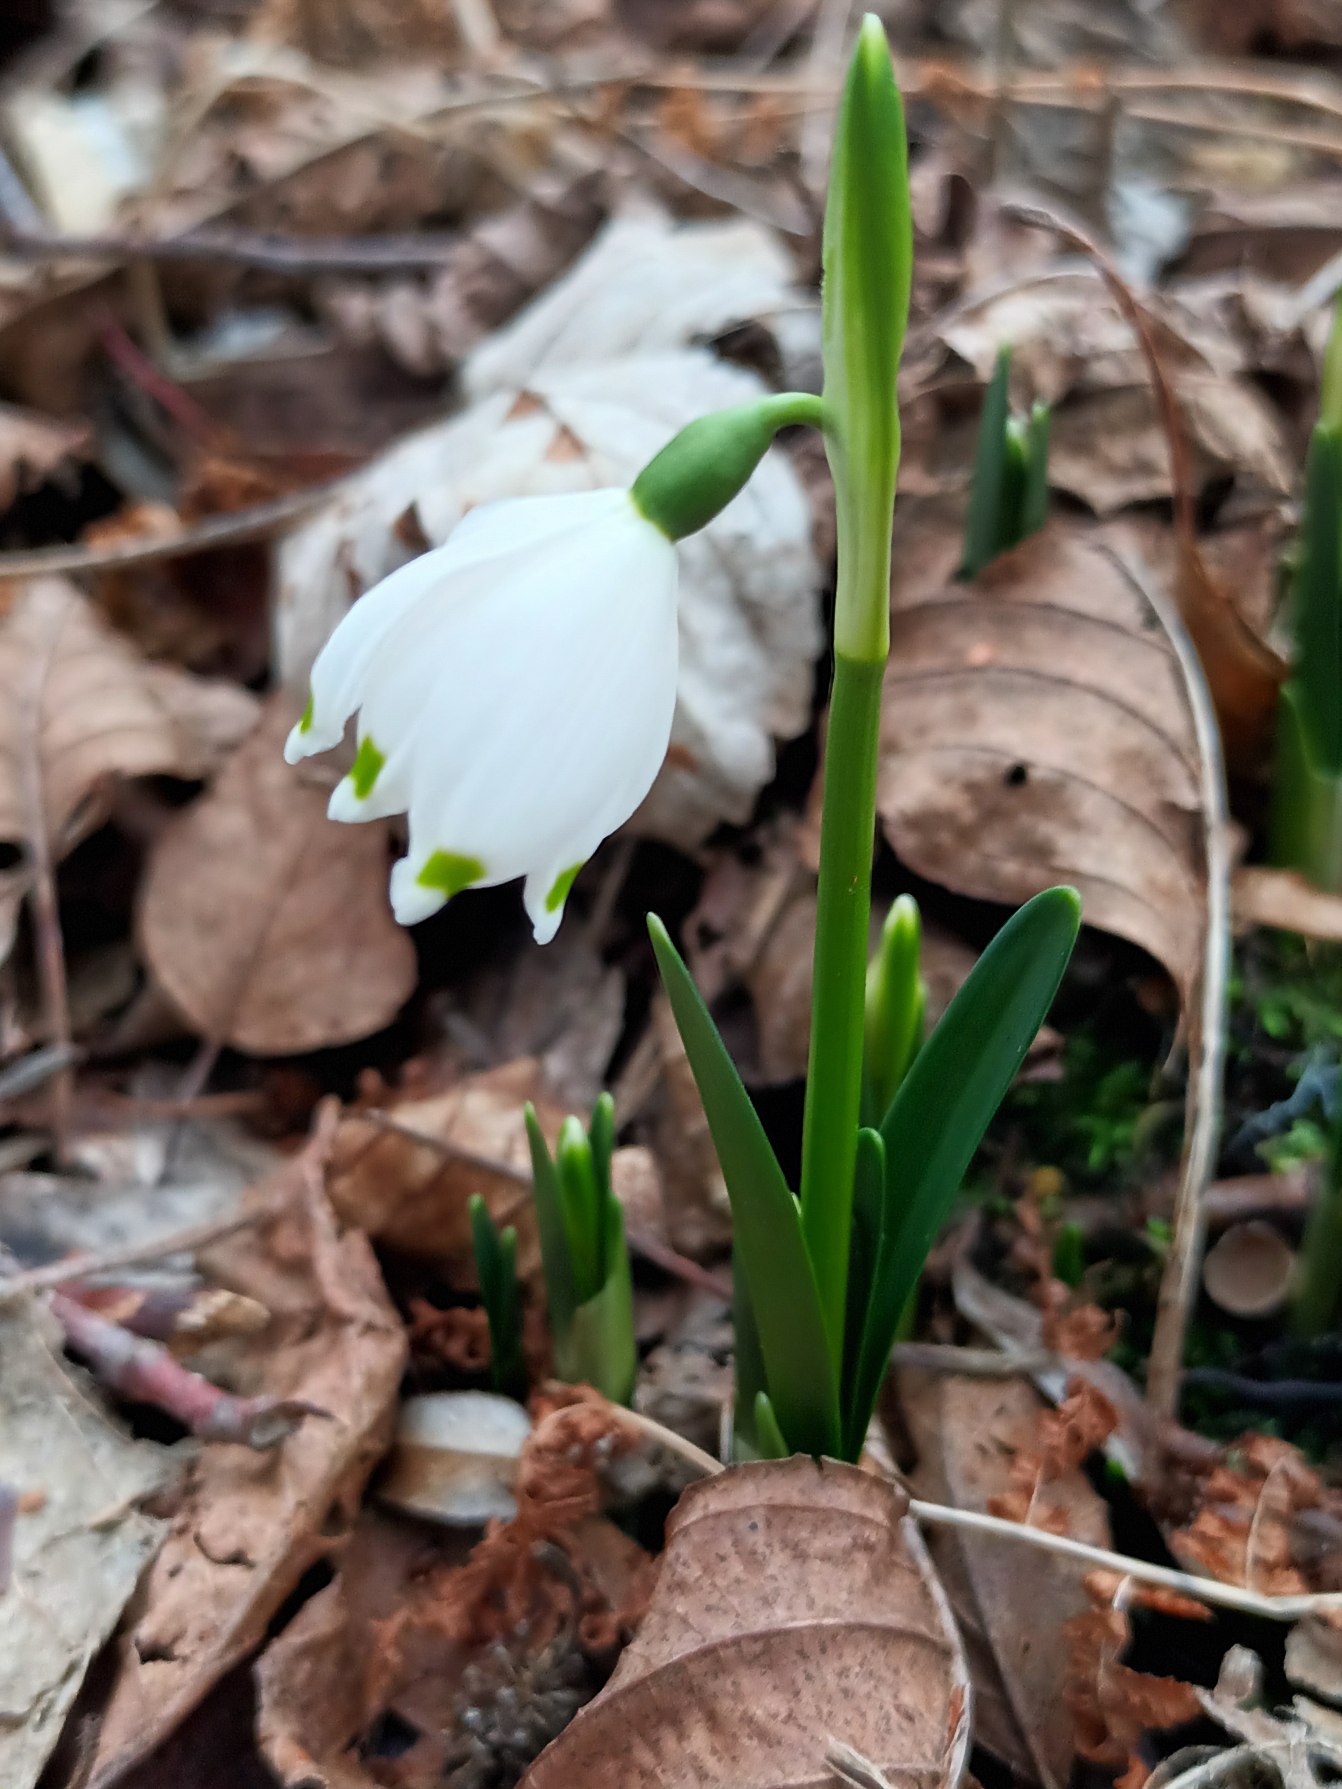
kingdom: Plantae
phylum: Tracheophyta
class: Liliopsida
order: Asparagales
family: Amaryllidaceae
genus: Leucojum
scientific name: Leucojum vernum
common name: Dorthealilje
